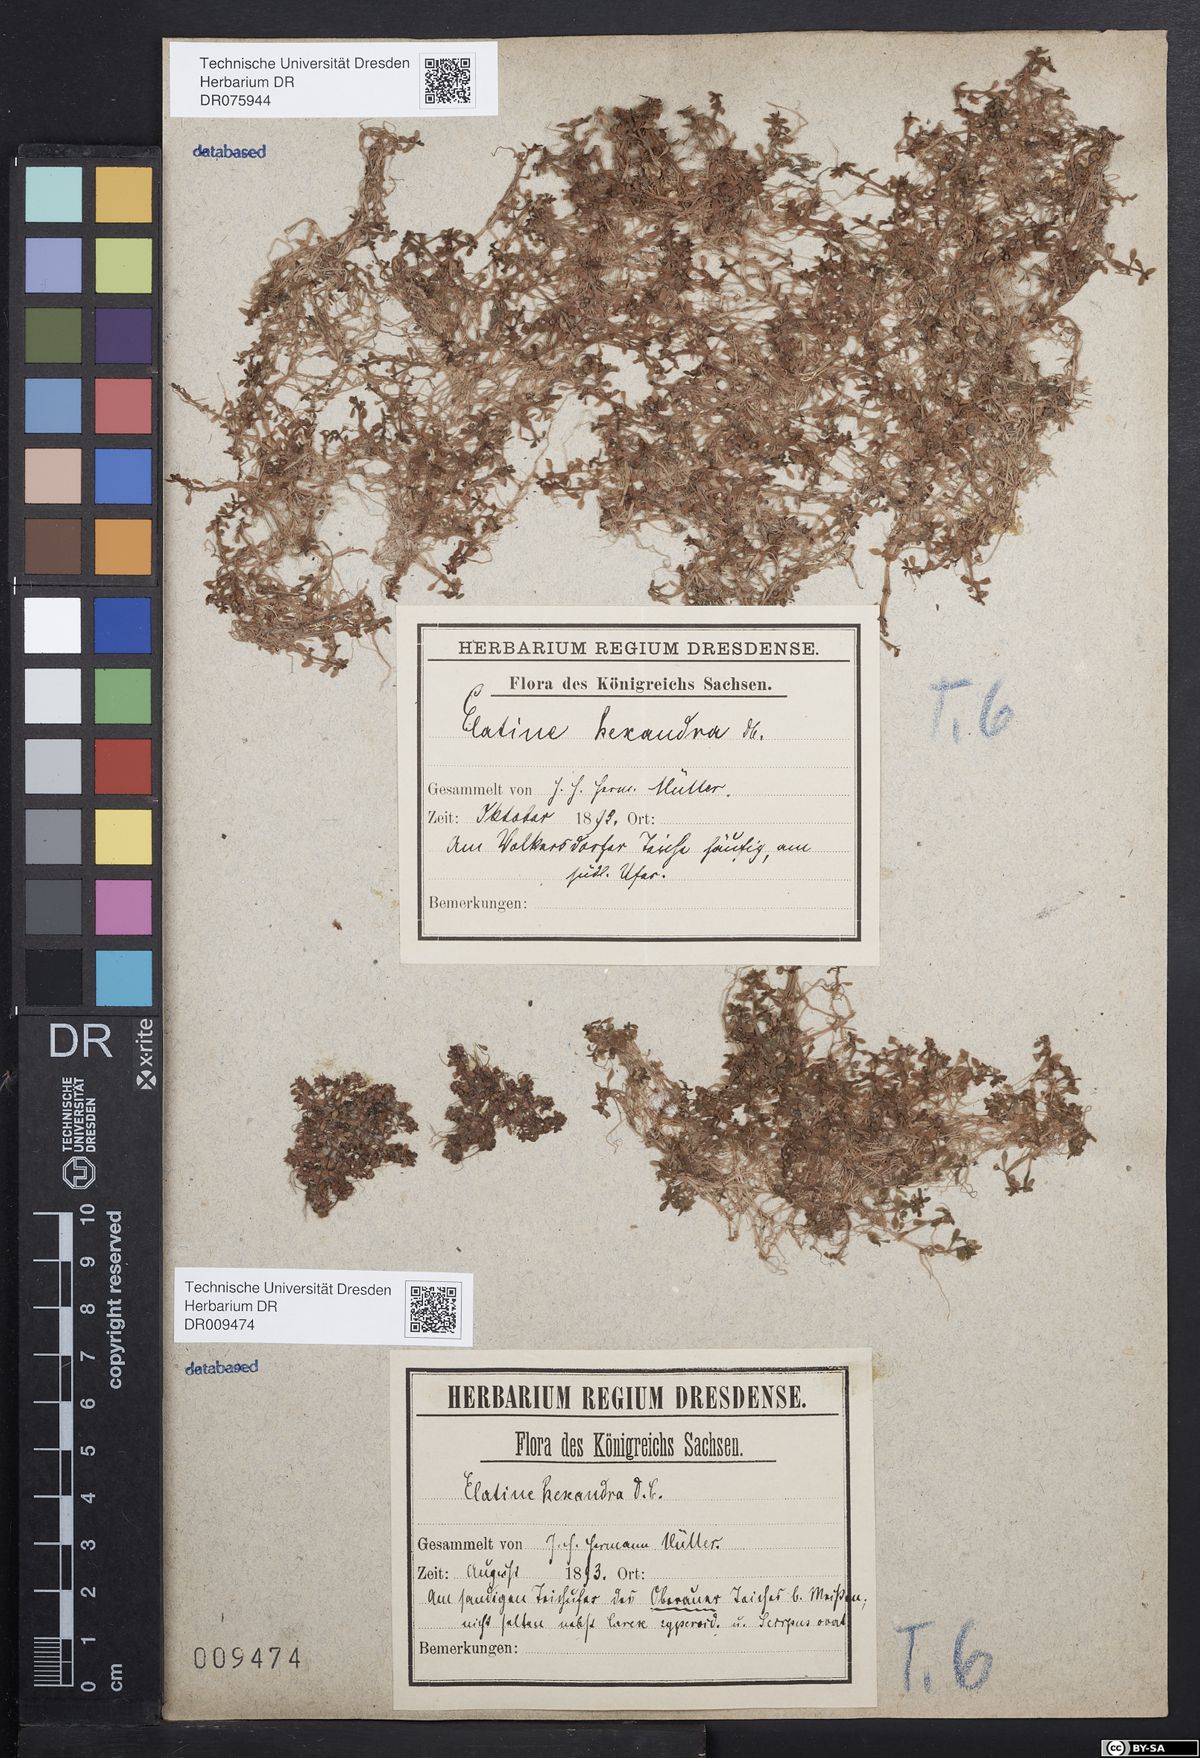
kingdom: Plantae
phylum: Tracheophyta
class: Magnoliopsida
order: Malpighiales
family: Elatinaceae
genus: Elatine
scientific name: Elatine hexandra
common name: Six-stamened waterwort
